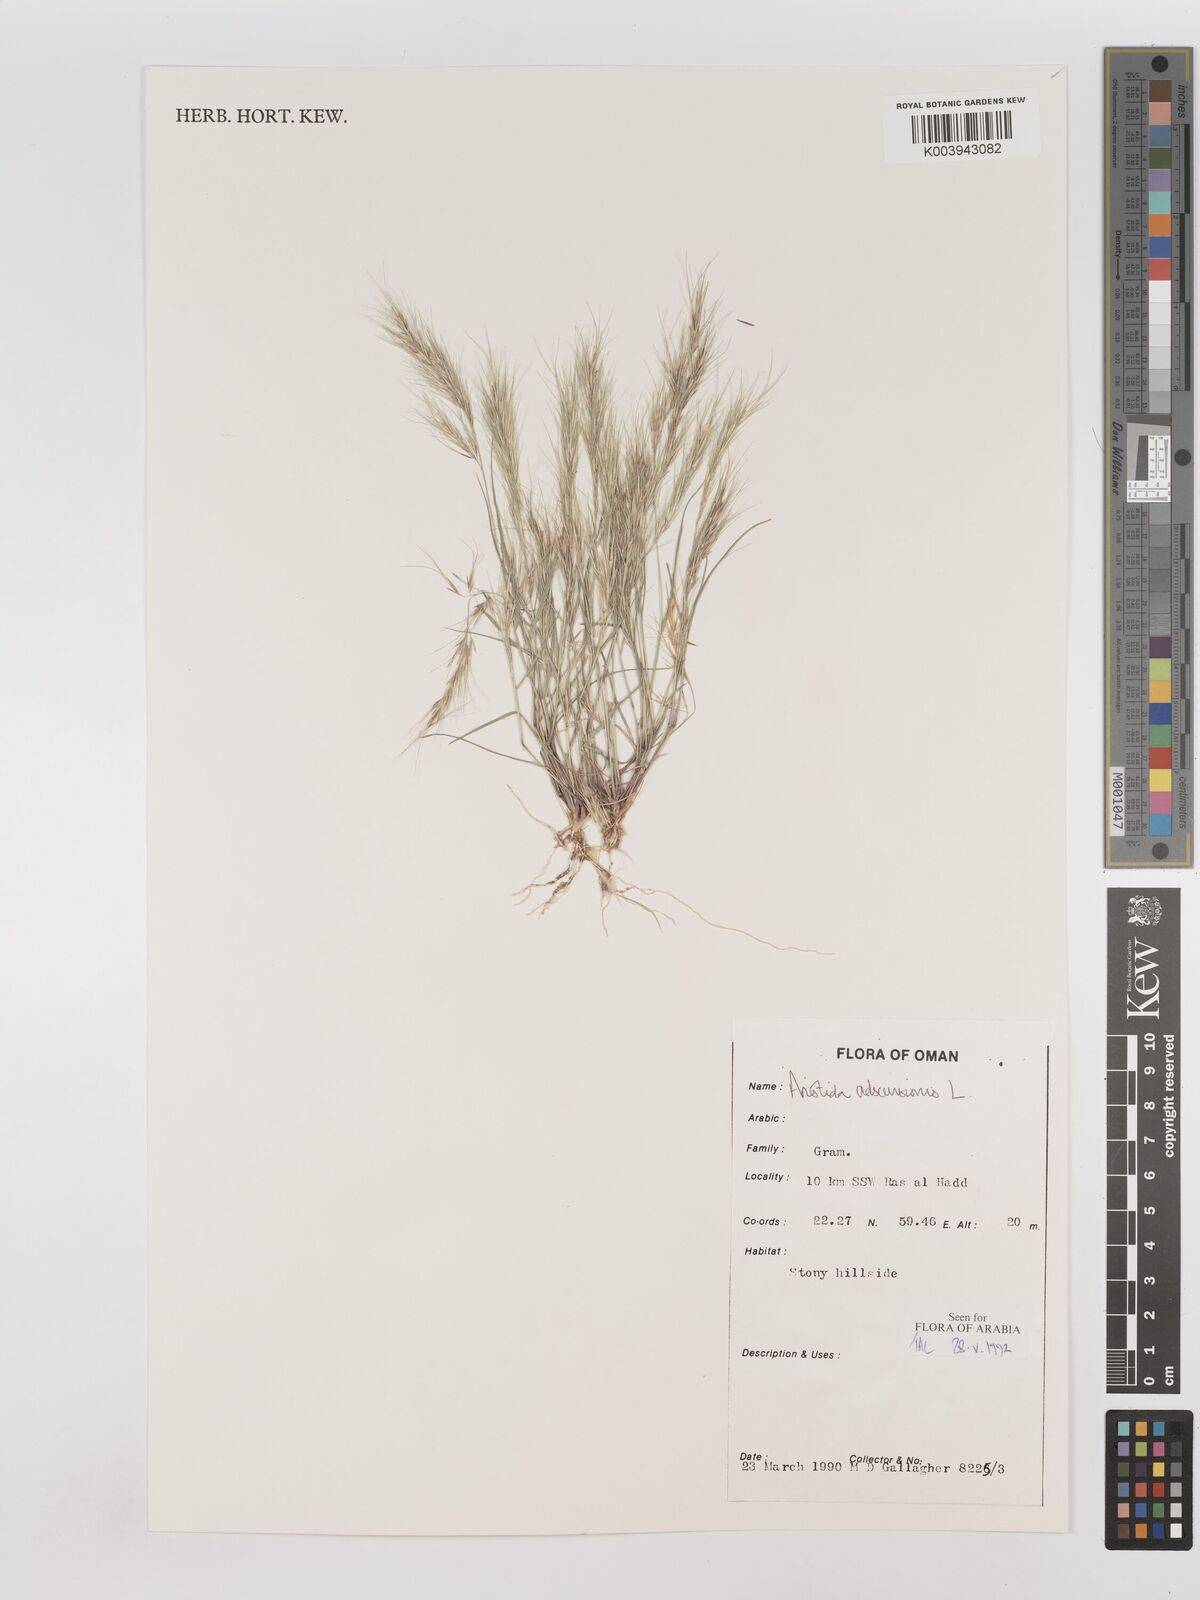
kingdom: Plantae
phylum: Tracheophyta
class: Liliopsida
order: Poales
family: Poaceae
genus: Aristida
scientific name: Aristida adscensionis
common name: Sixweeks threeawn
